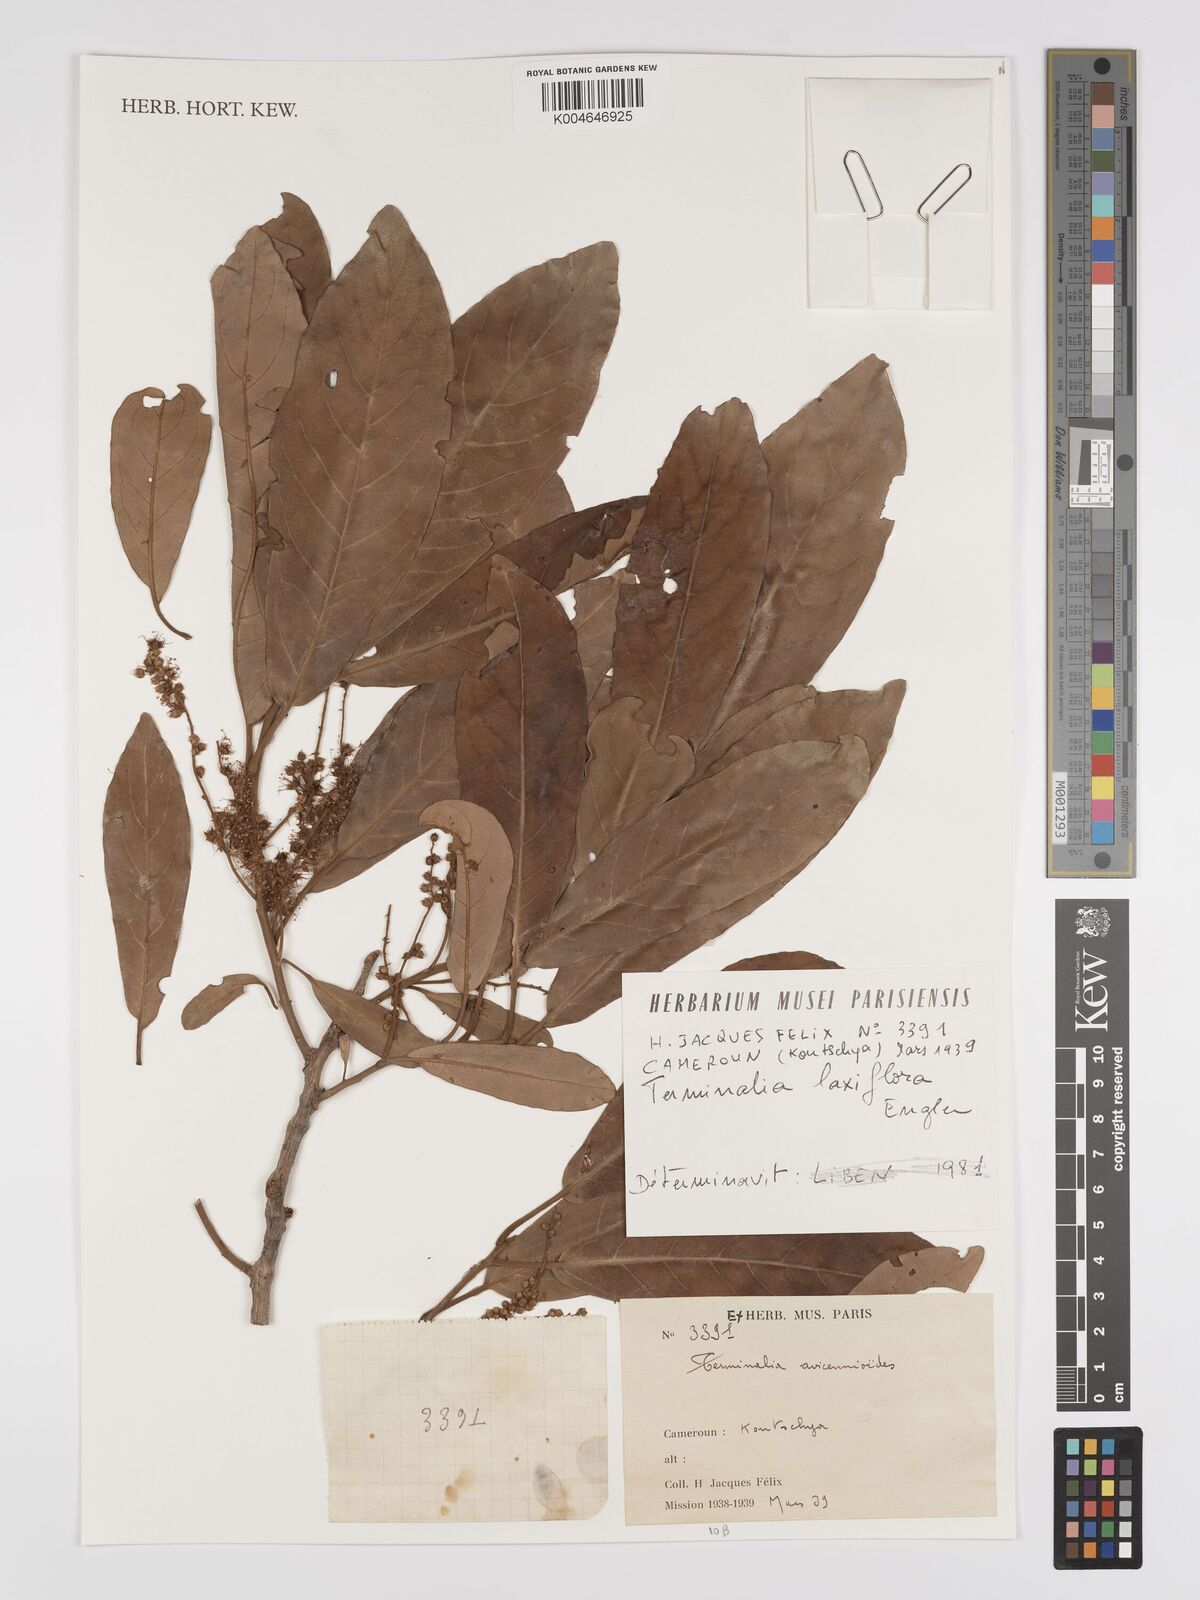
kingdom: Plantae
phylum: Tracheophyta
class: Magnoliopsida
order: Myrtales
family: Combretaceae
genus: Terminalia
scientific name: Terminalia avicennioides
